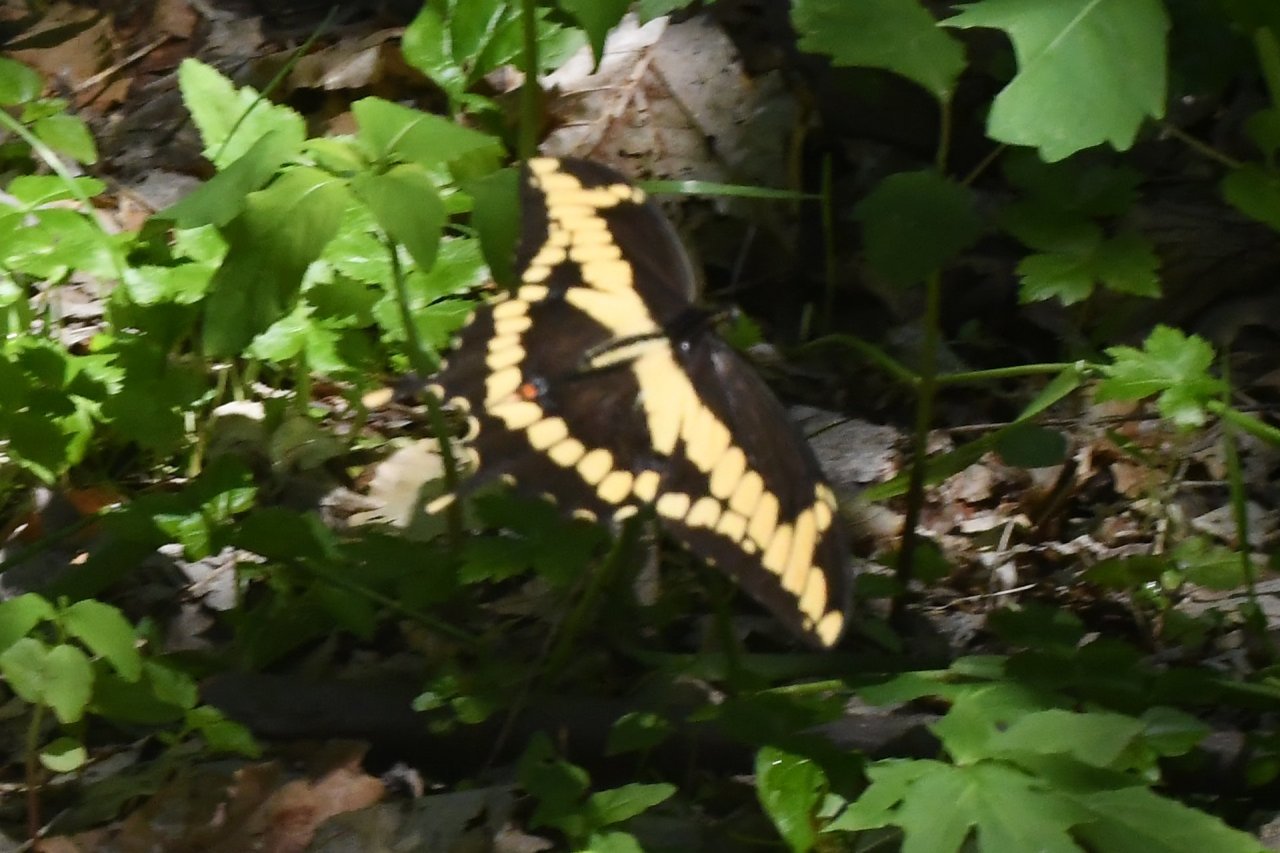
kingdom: Animalia
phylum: Arthropoda
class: Insecta
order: Lepidoptera
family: Papilionidae
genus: Papilio
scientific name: Papilio cresphontes
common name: Eastern Giant Swallowtail
